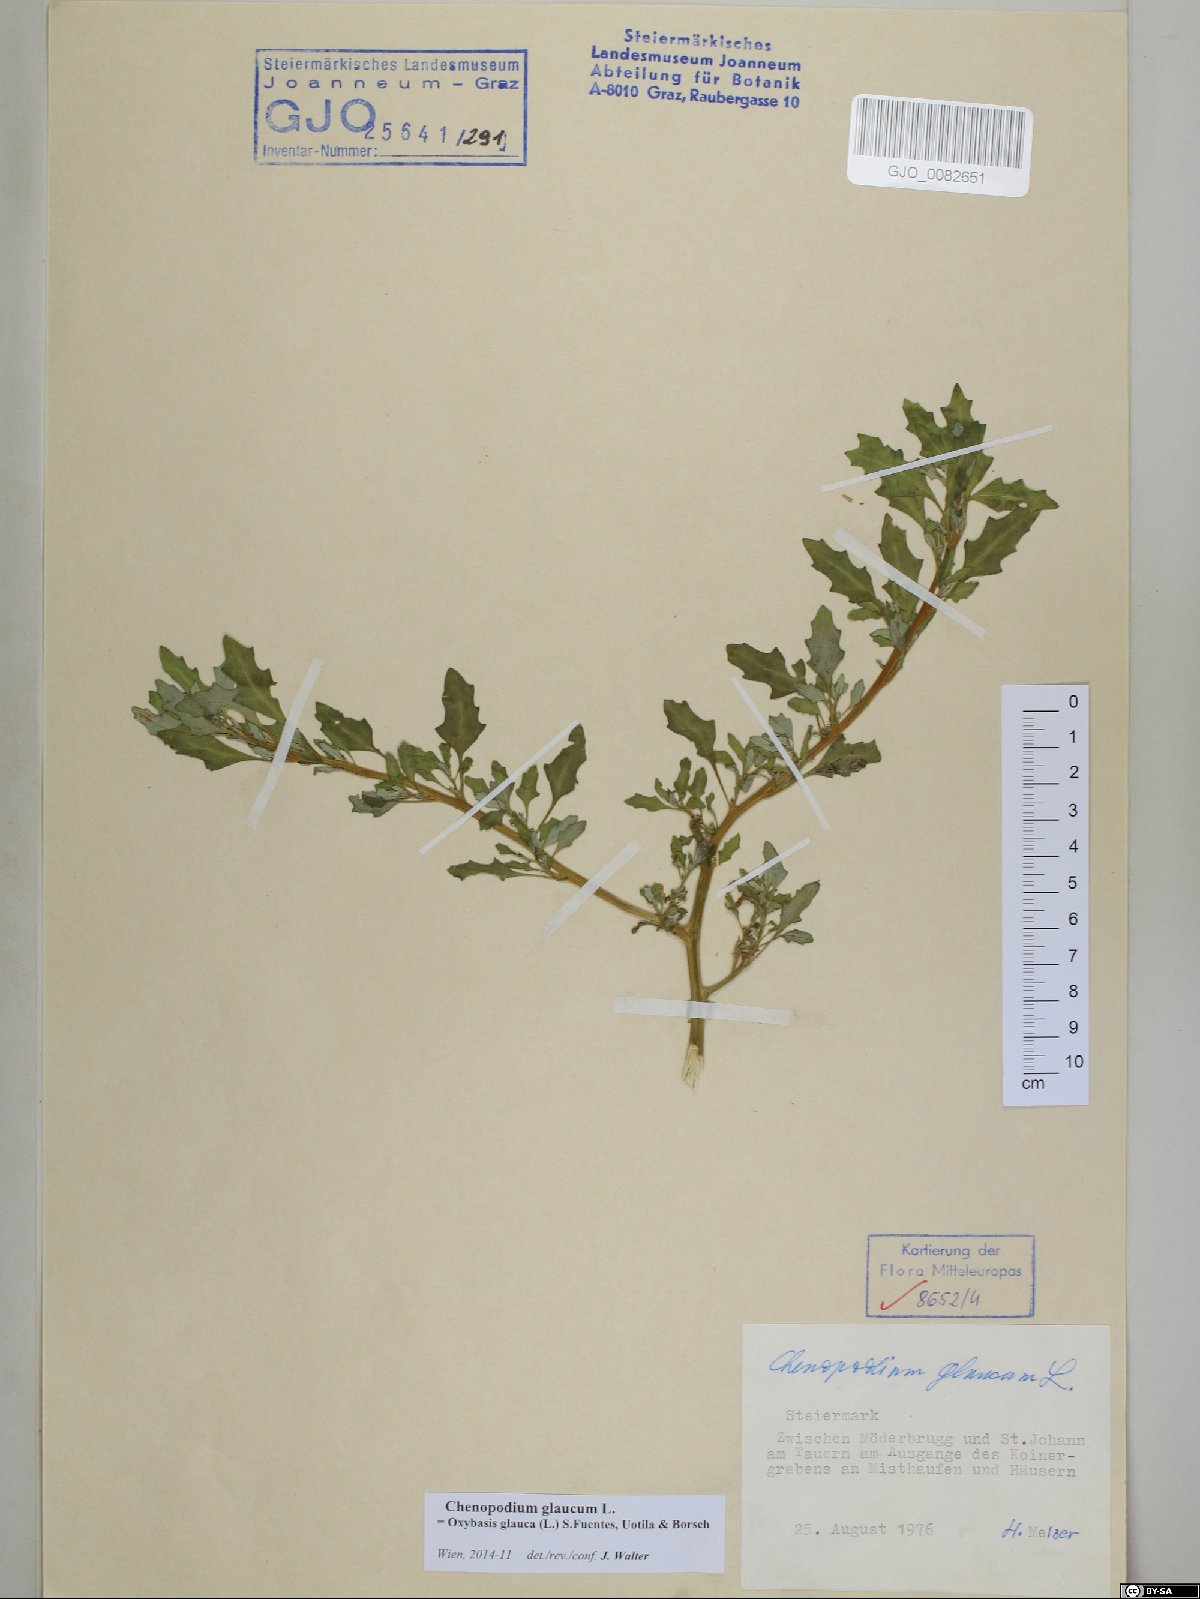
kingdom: Plantae
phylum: Tracheophyta
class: Magnoliopsida
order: Caryophyllales
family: Amaranthaceae
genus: Oxybasis
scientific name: Oxybasis glauca
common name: Glaucous goosefoot
